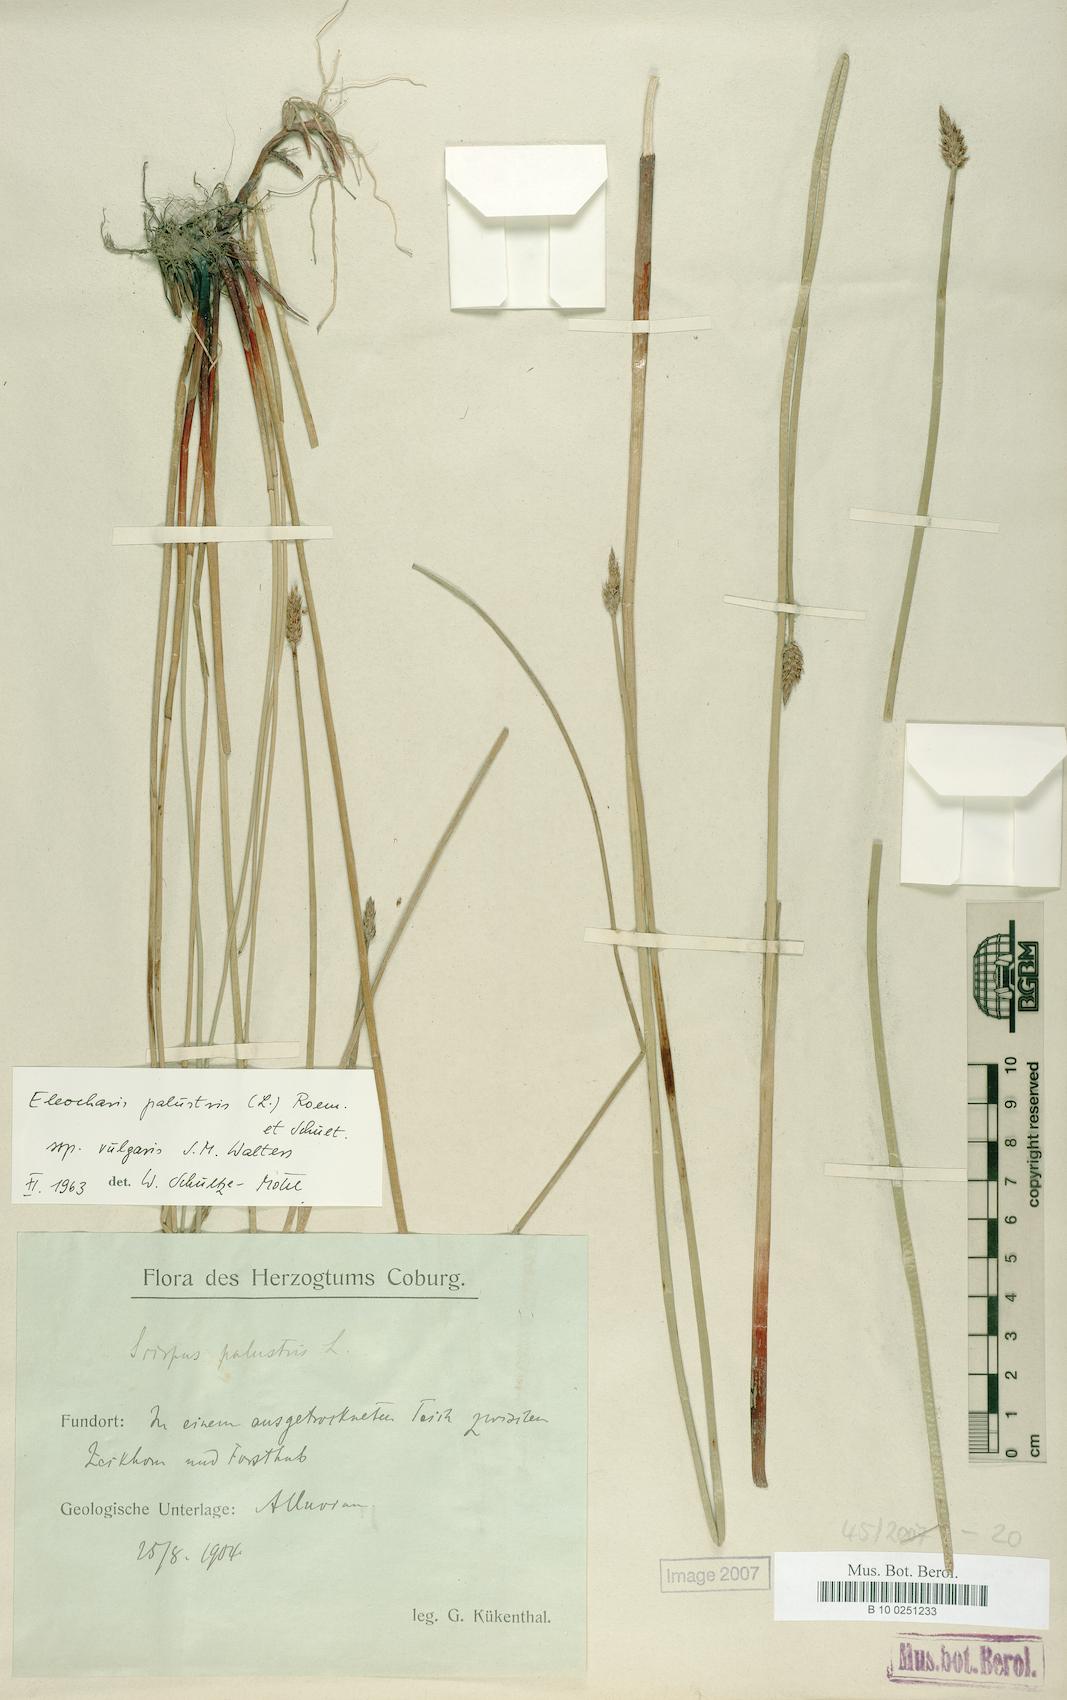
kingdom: Plantae
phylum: Tracheophyta
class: Liliopsida
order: Poales
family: Cyperaceae
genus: Eleocharis
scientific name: Eleocharis palustris
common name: Common spike-rush
